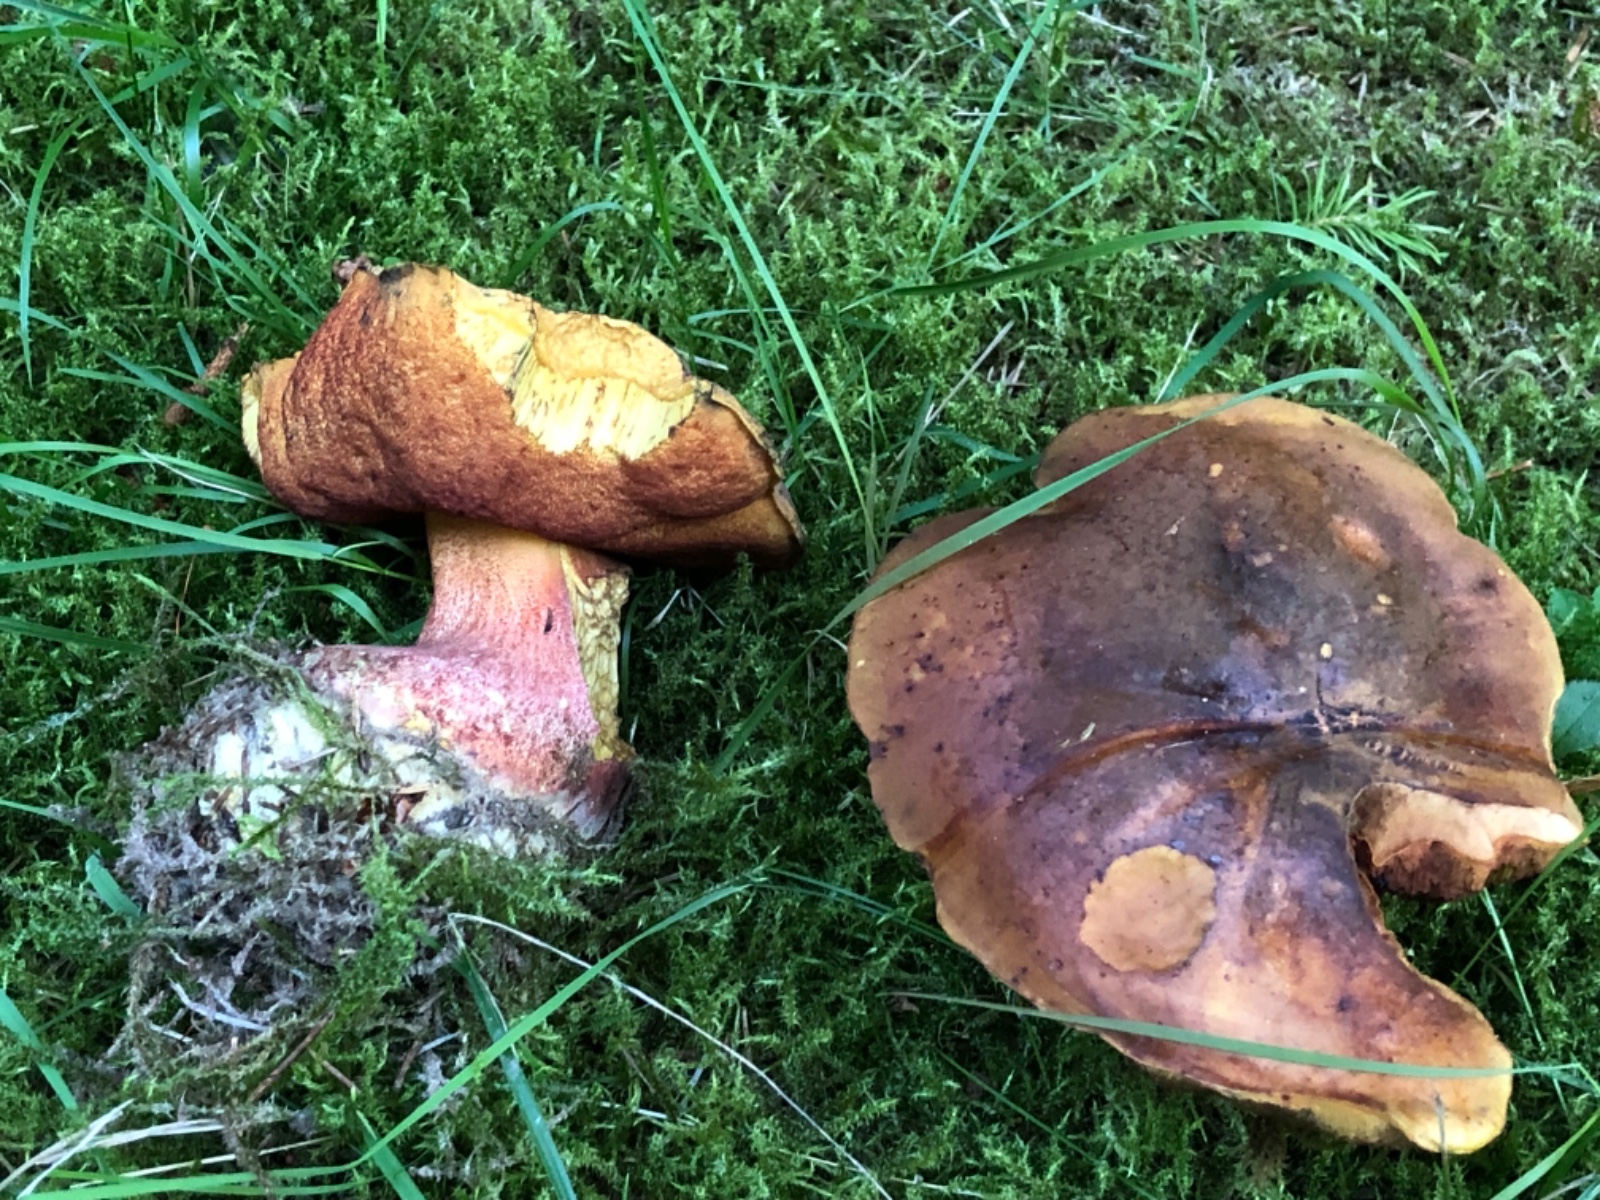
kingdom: Fungi
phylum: Basidiomycota
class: Agaricomycetes
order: Boletales
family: Boletaceae
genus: Neoboletus
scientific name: Neoboletus erythropus
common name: punktstokket indigorørhat
